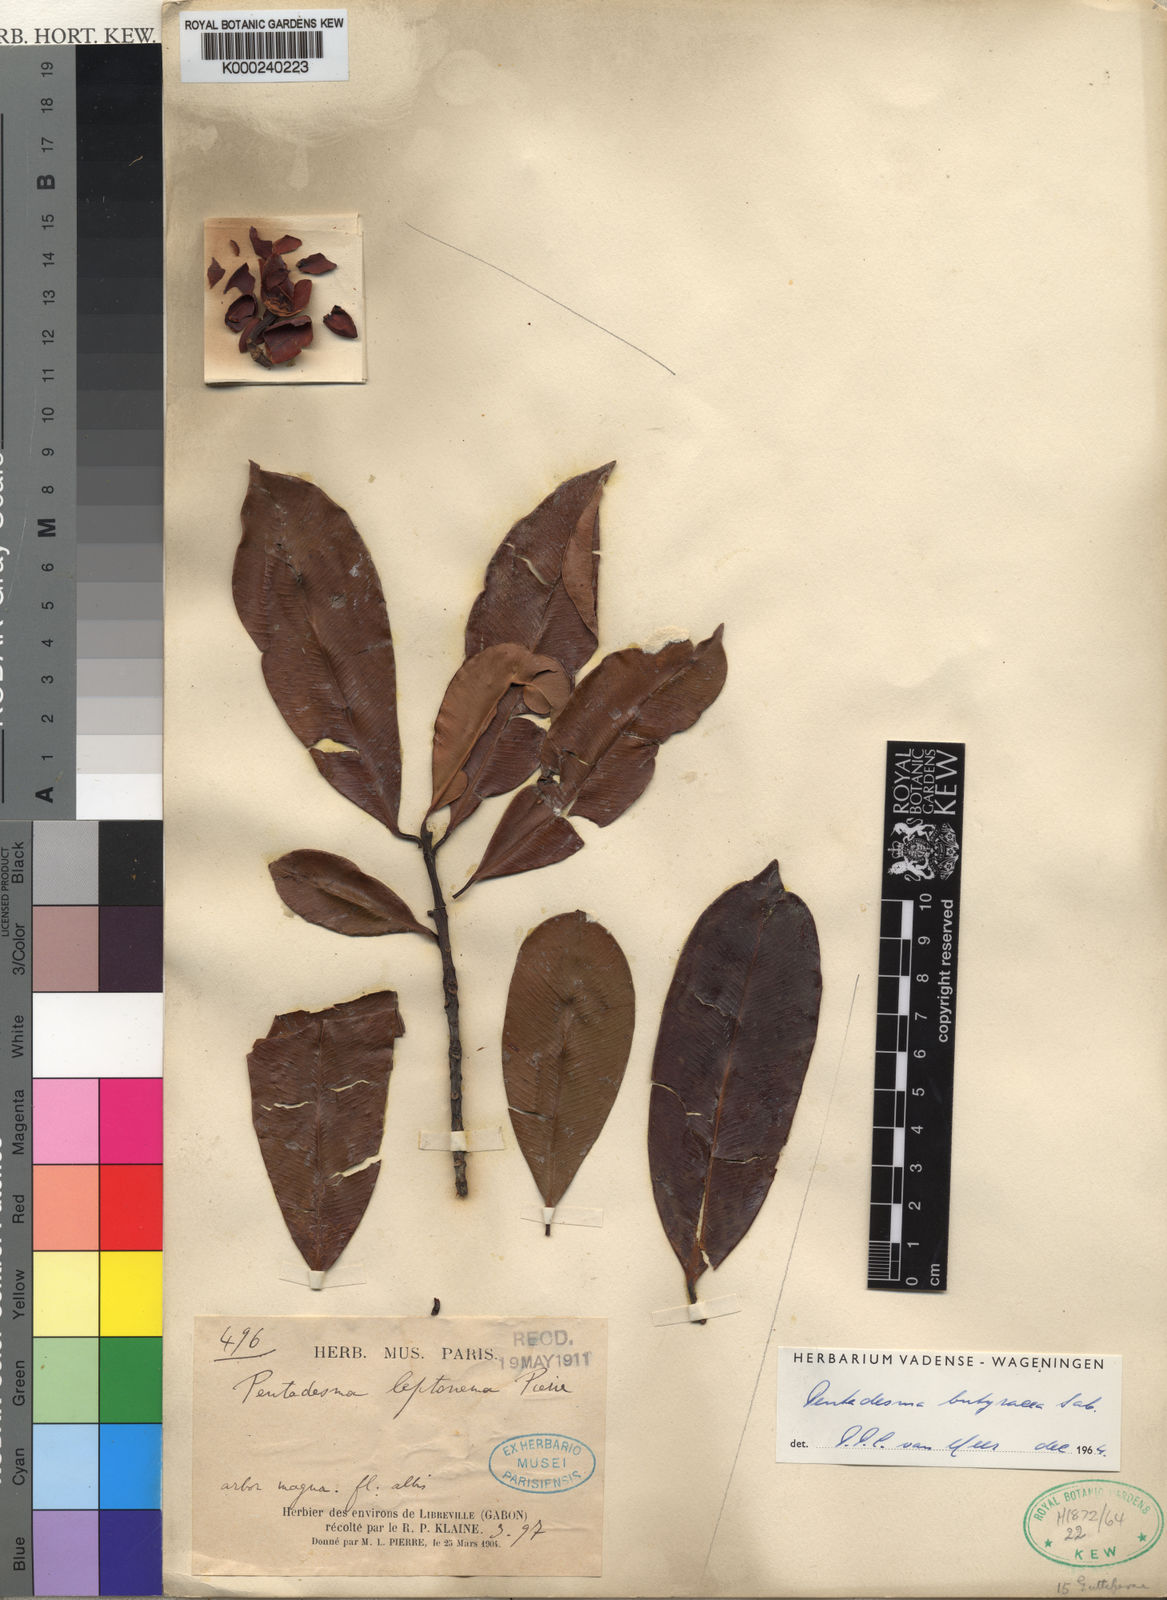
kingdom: Plantae
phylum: Tracheophyta
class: Magnoliopsida
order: Malpighiales
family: Clusiaceae
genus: Pentadesma
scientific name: Pentadesma butyracea
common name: Buttertree
